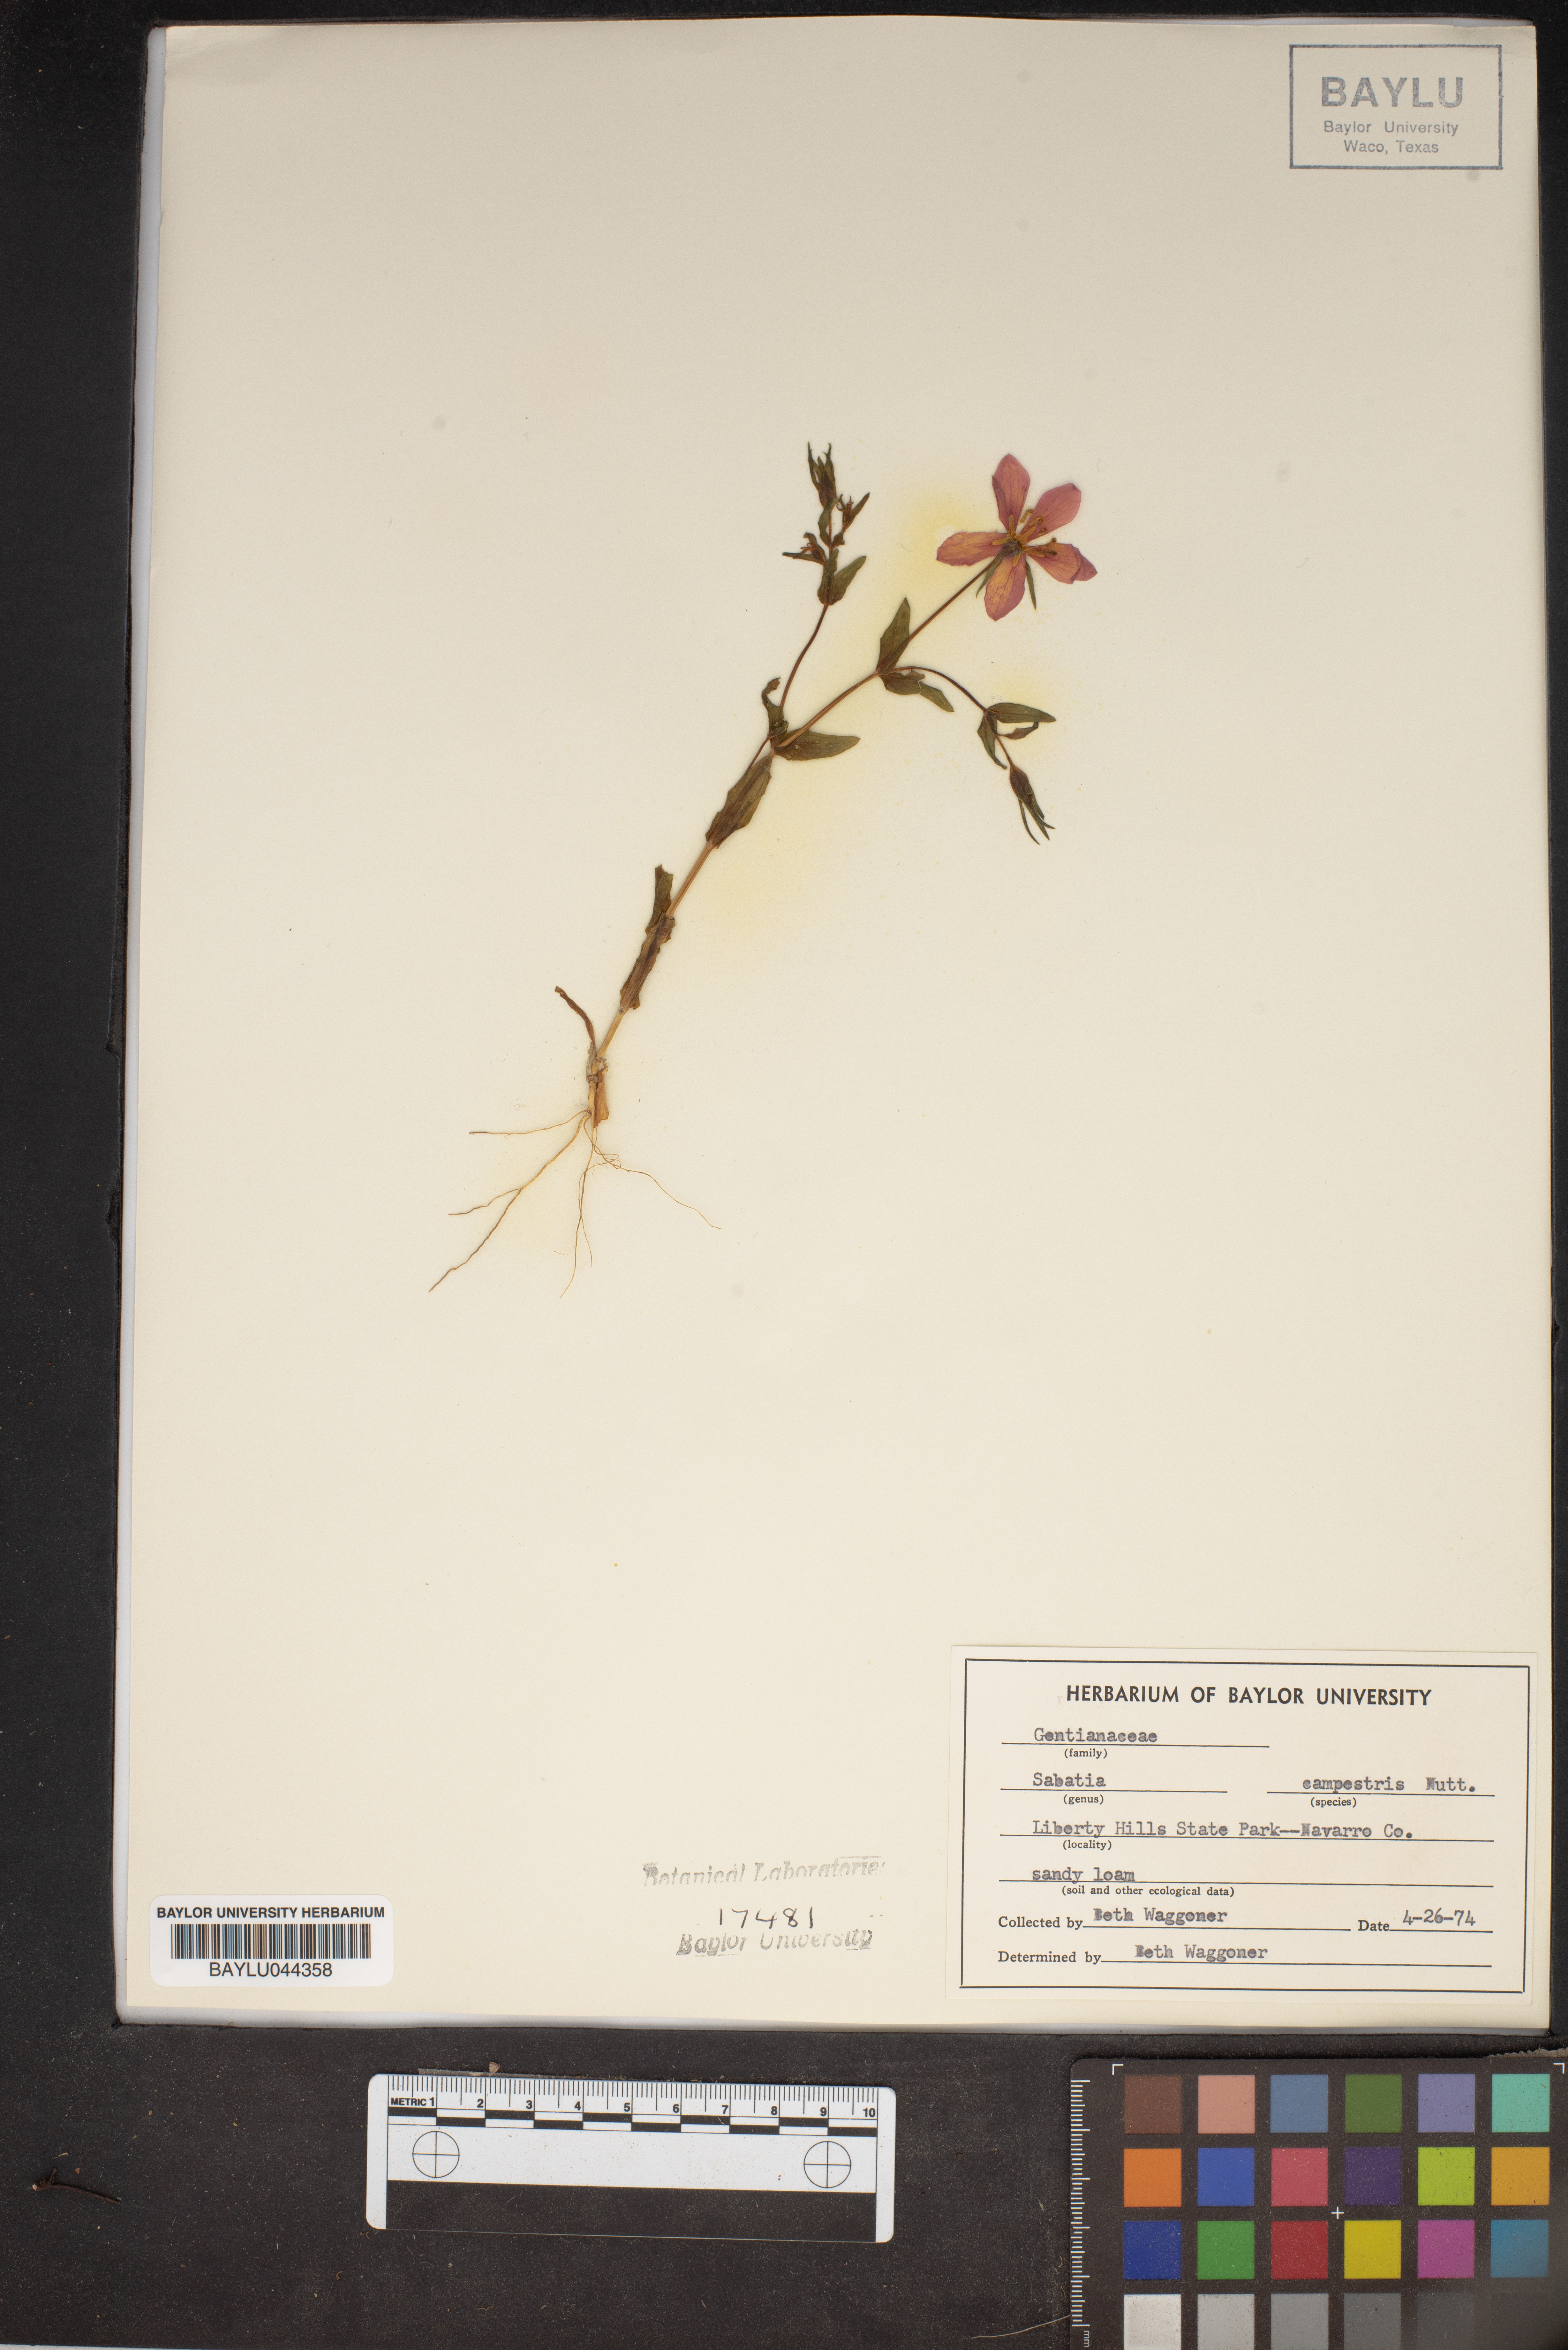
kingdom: Plantae
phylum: Tracheophyta
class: Magnoliopsida
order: Gentianales
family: Gentianaceae
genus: Sabatia
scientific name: Sabatia campestris
